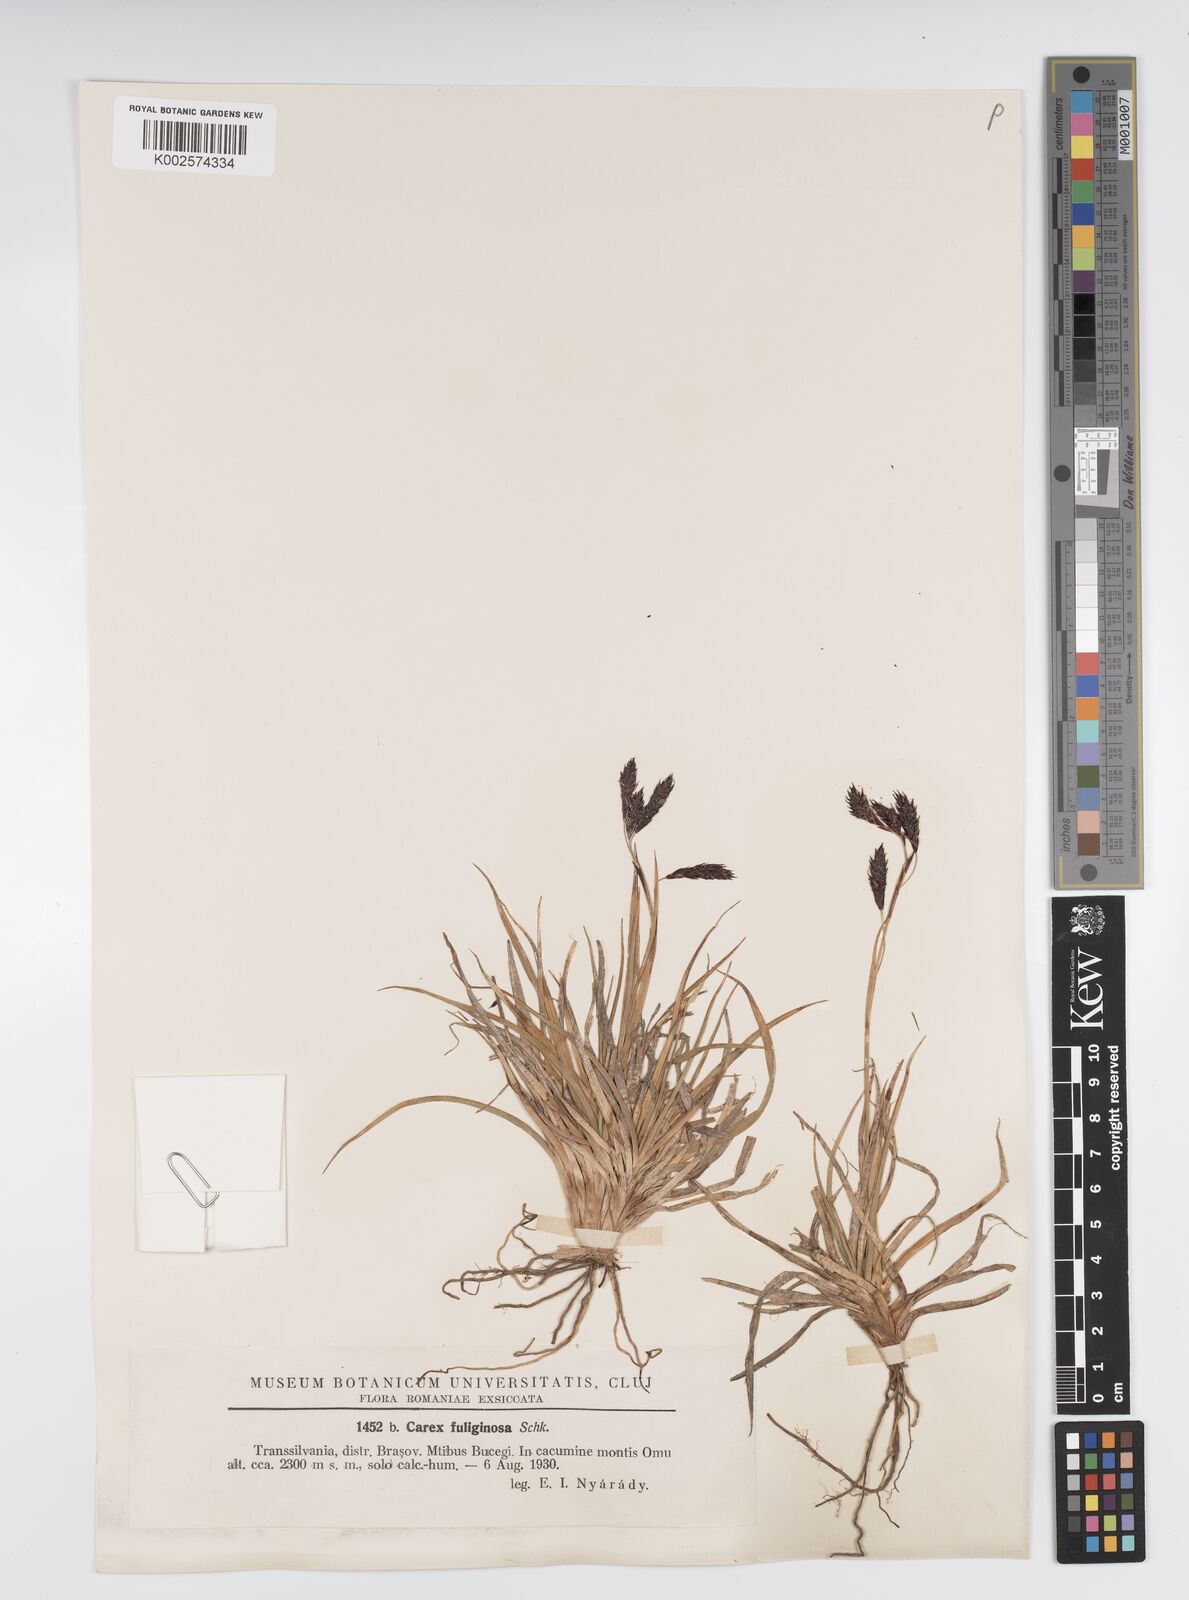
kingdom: Plantae
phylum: Tracheophyta
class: Liliopsida
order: Poales
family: Cyperaceae
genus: Carex
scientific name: Carex fuliginosa
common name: Few-flowered sedge
